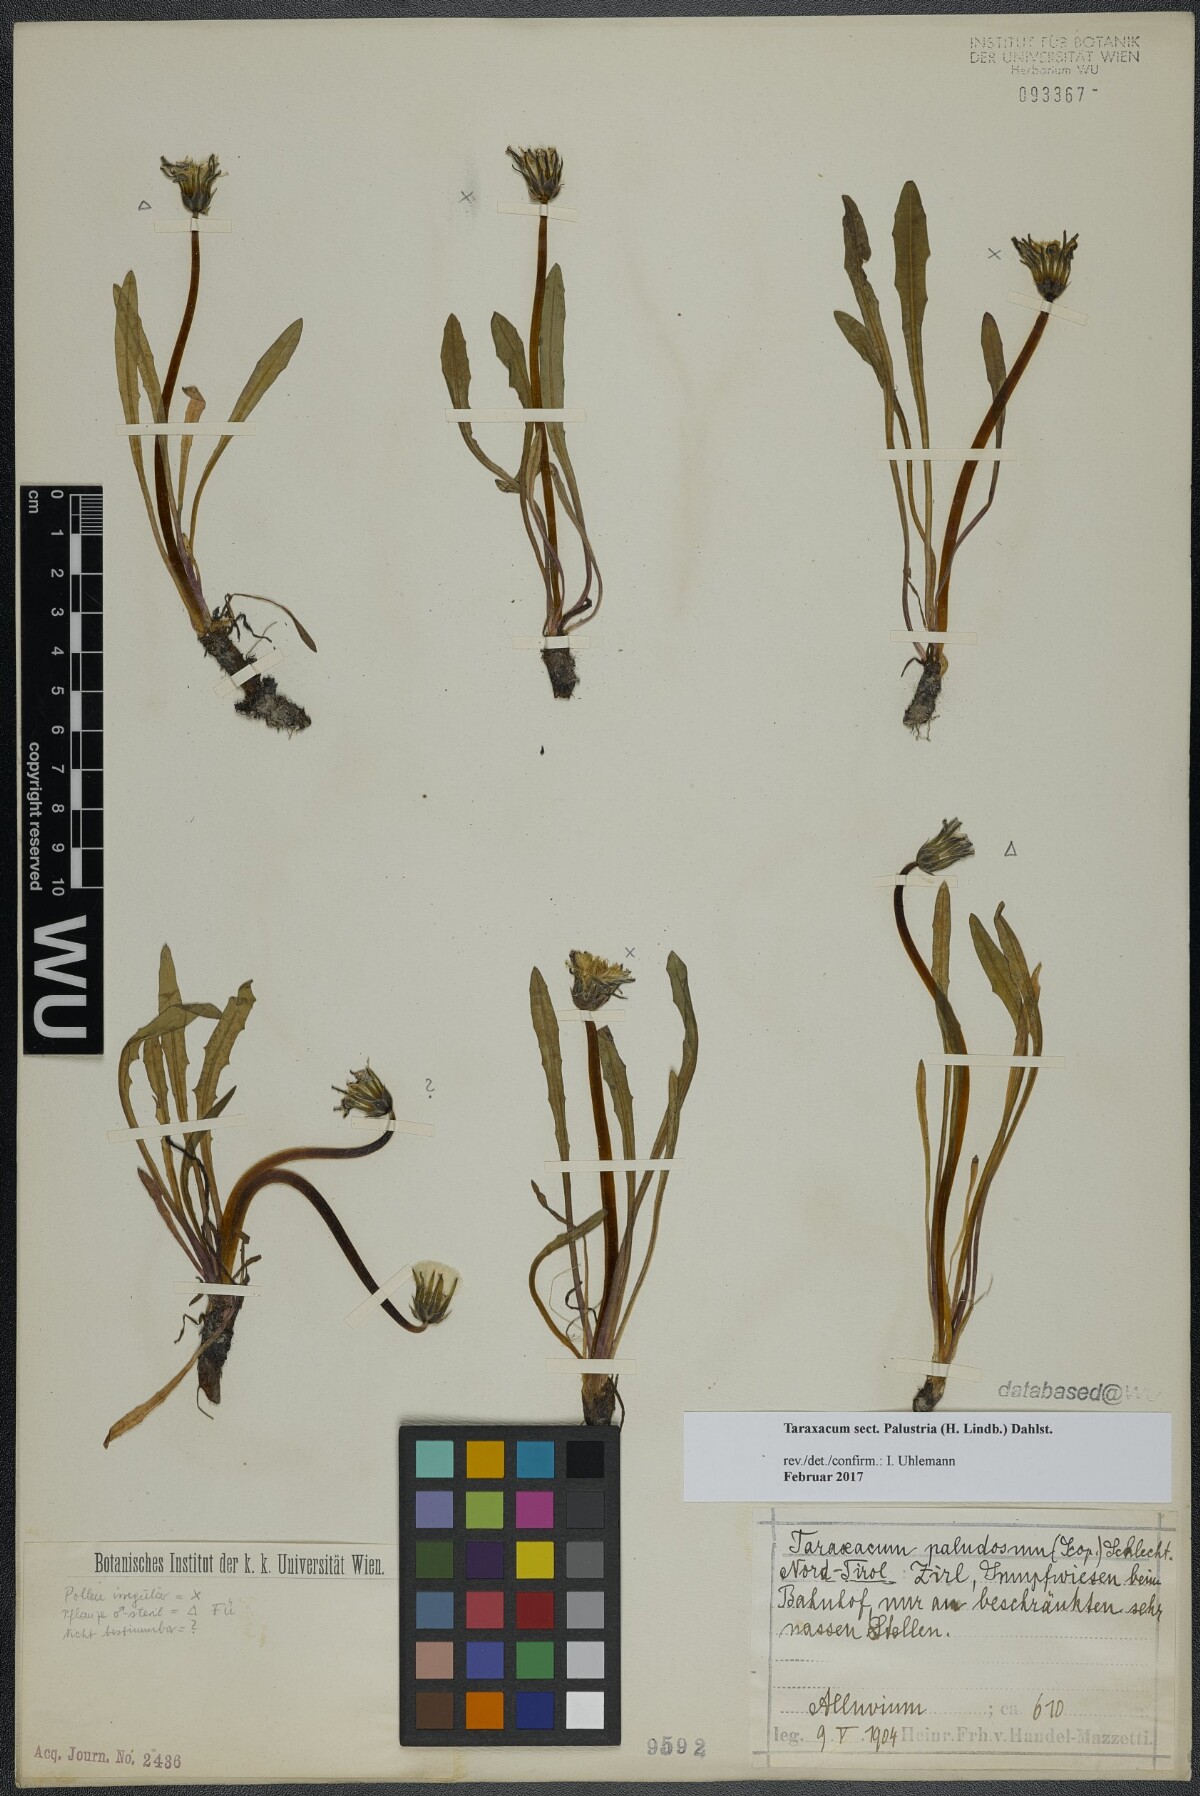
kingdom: Plantae
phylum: Tracheophyta
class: Magnoliopsida
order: Asterales
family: Asteraceae
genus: Taraxacum
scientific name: Taraxacum
